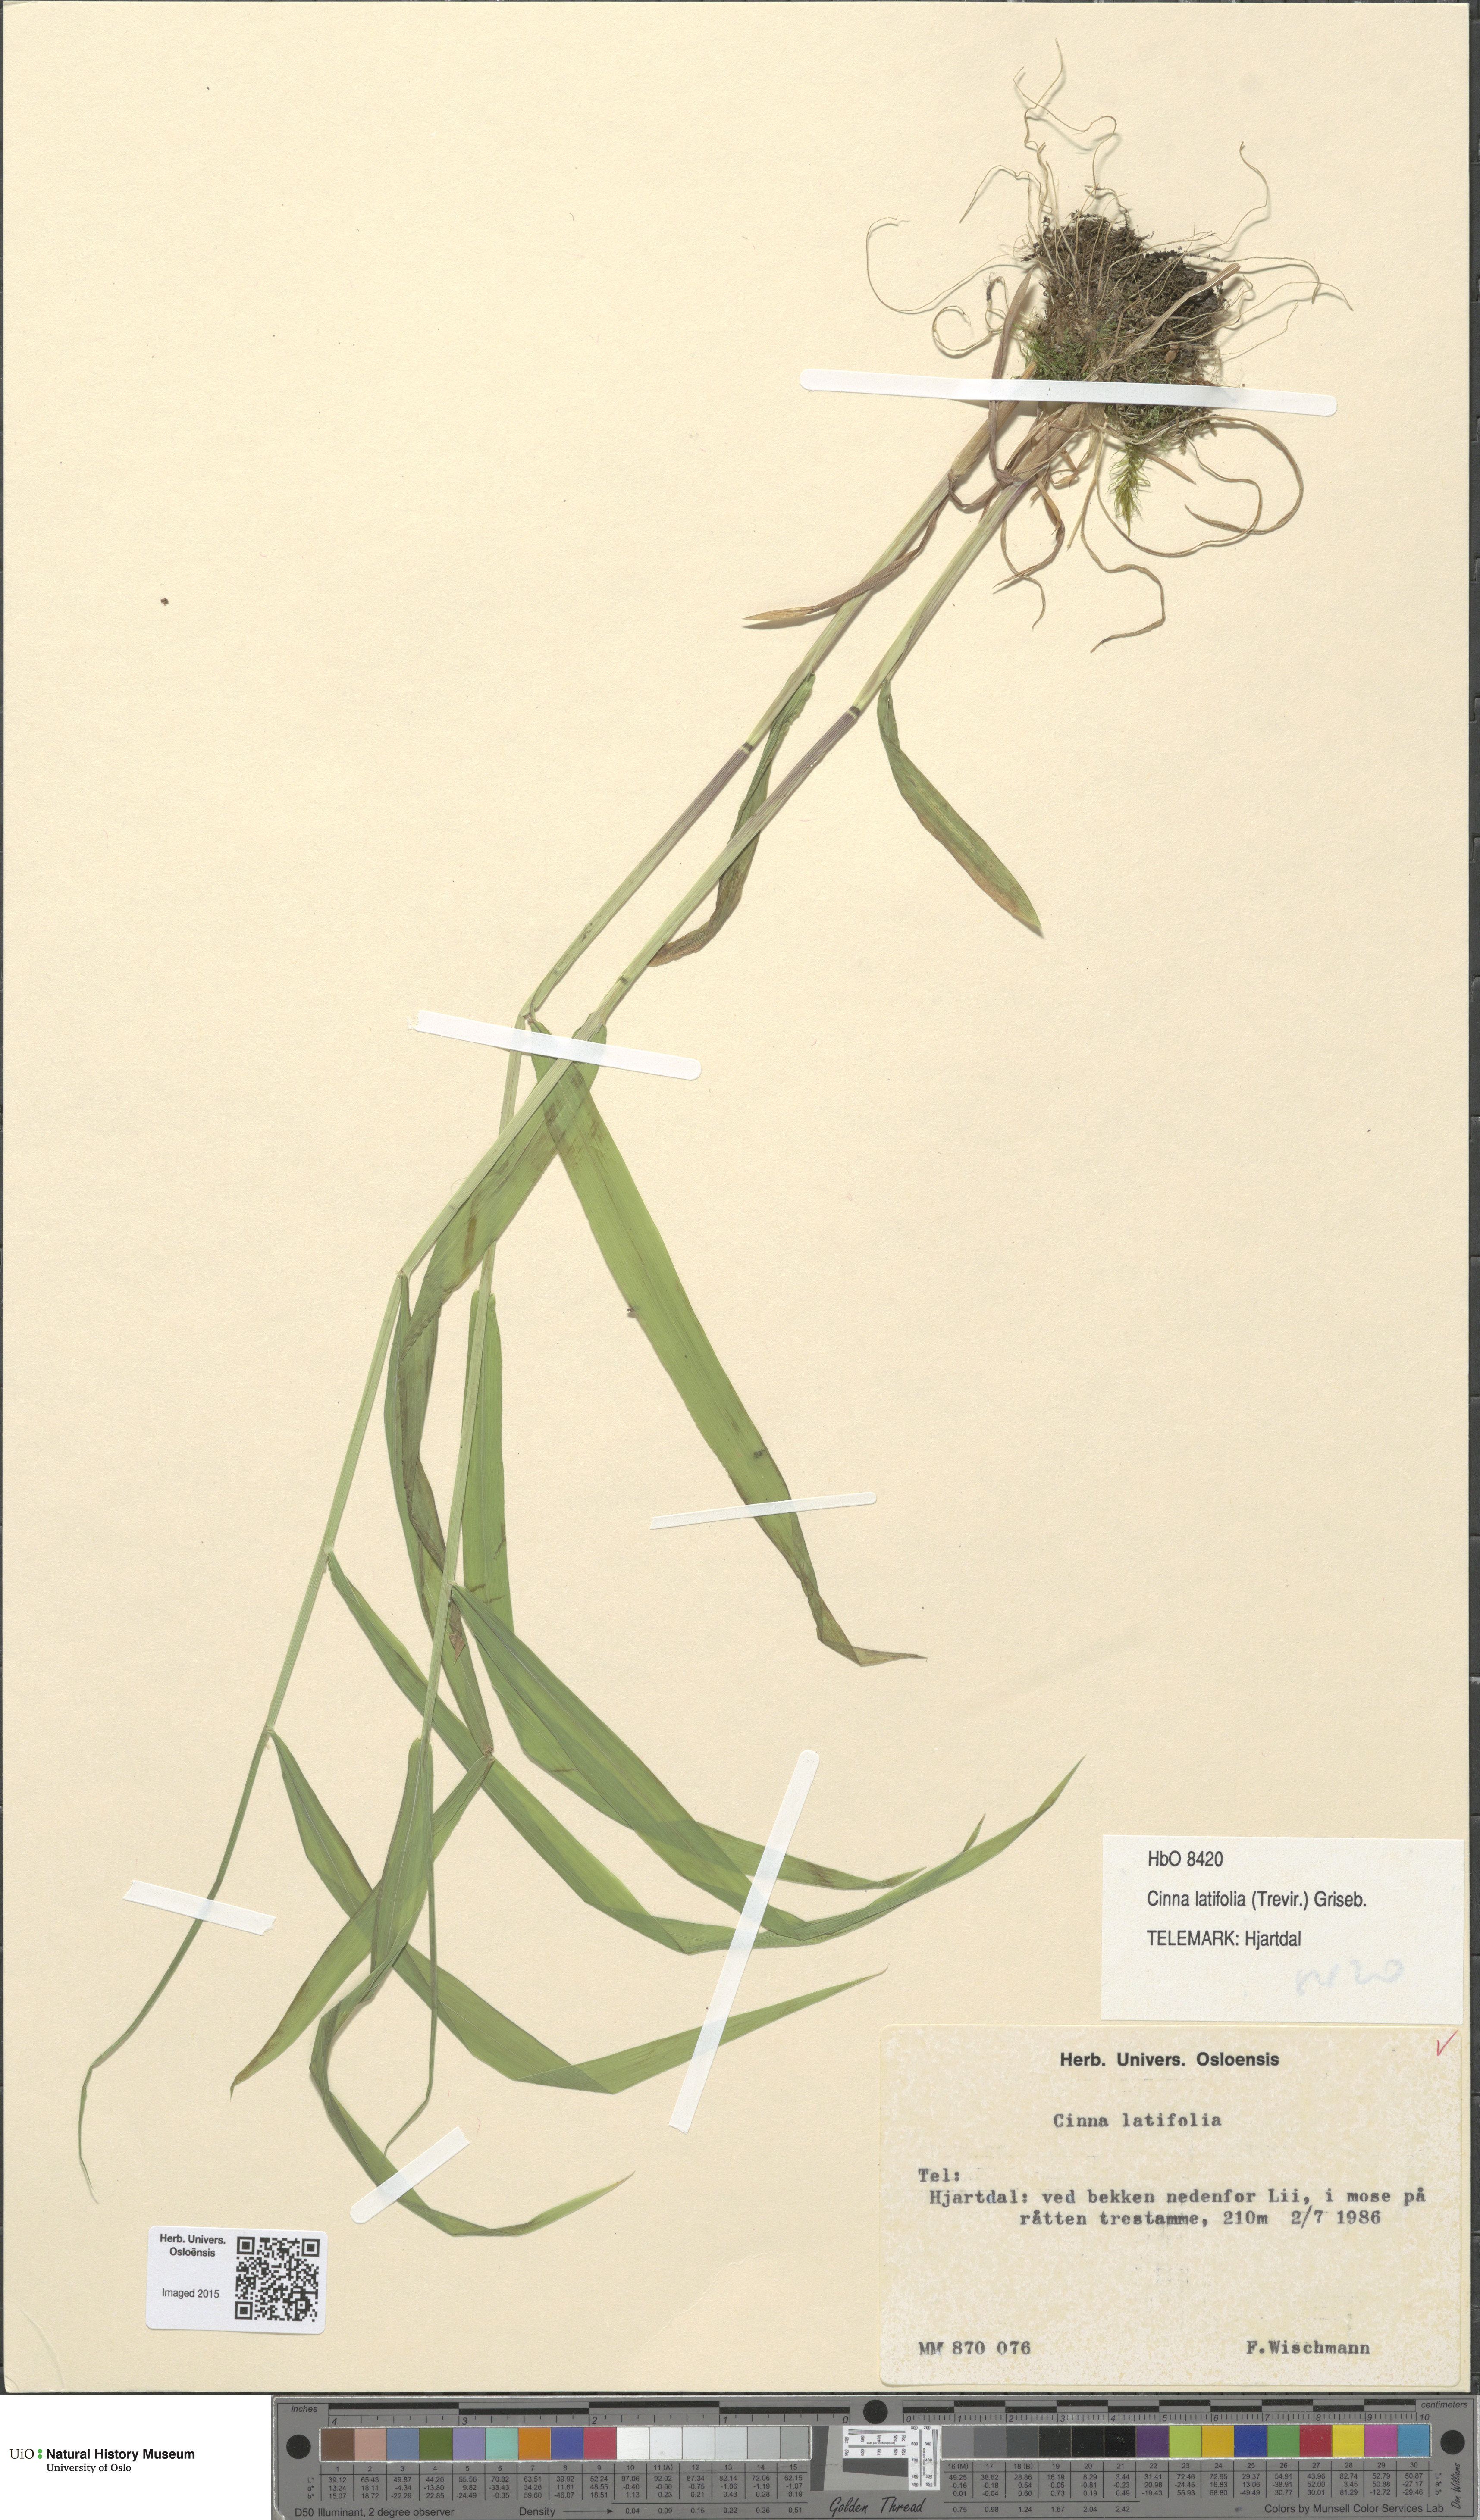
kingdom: Plantae
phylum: Tracheophyta
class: Liliopsida
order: Poales
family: Poaceae
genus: Cinna
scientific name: Cinna latifolia
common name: Drooping woodreed
